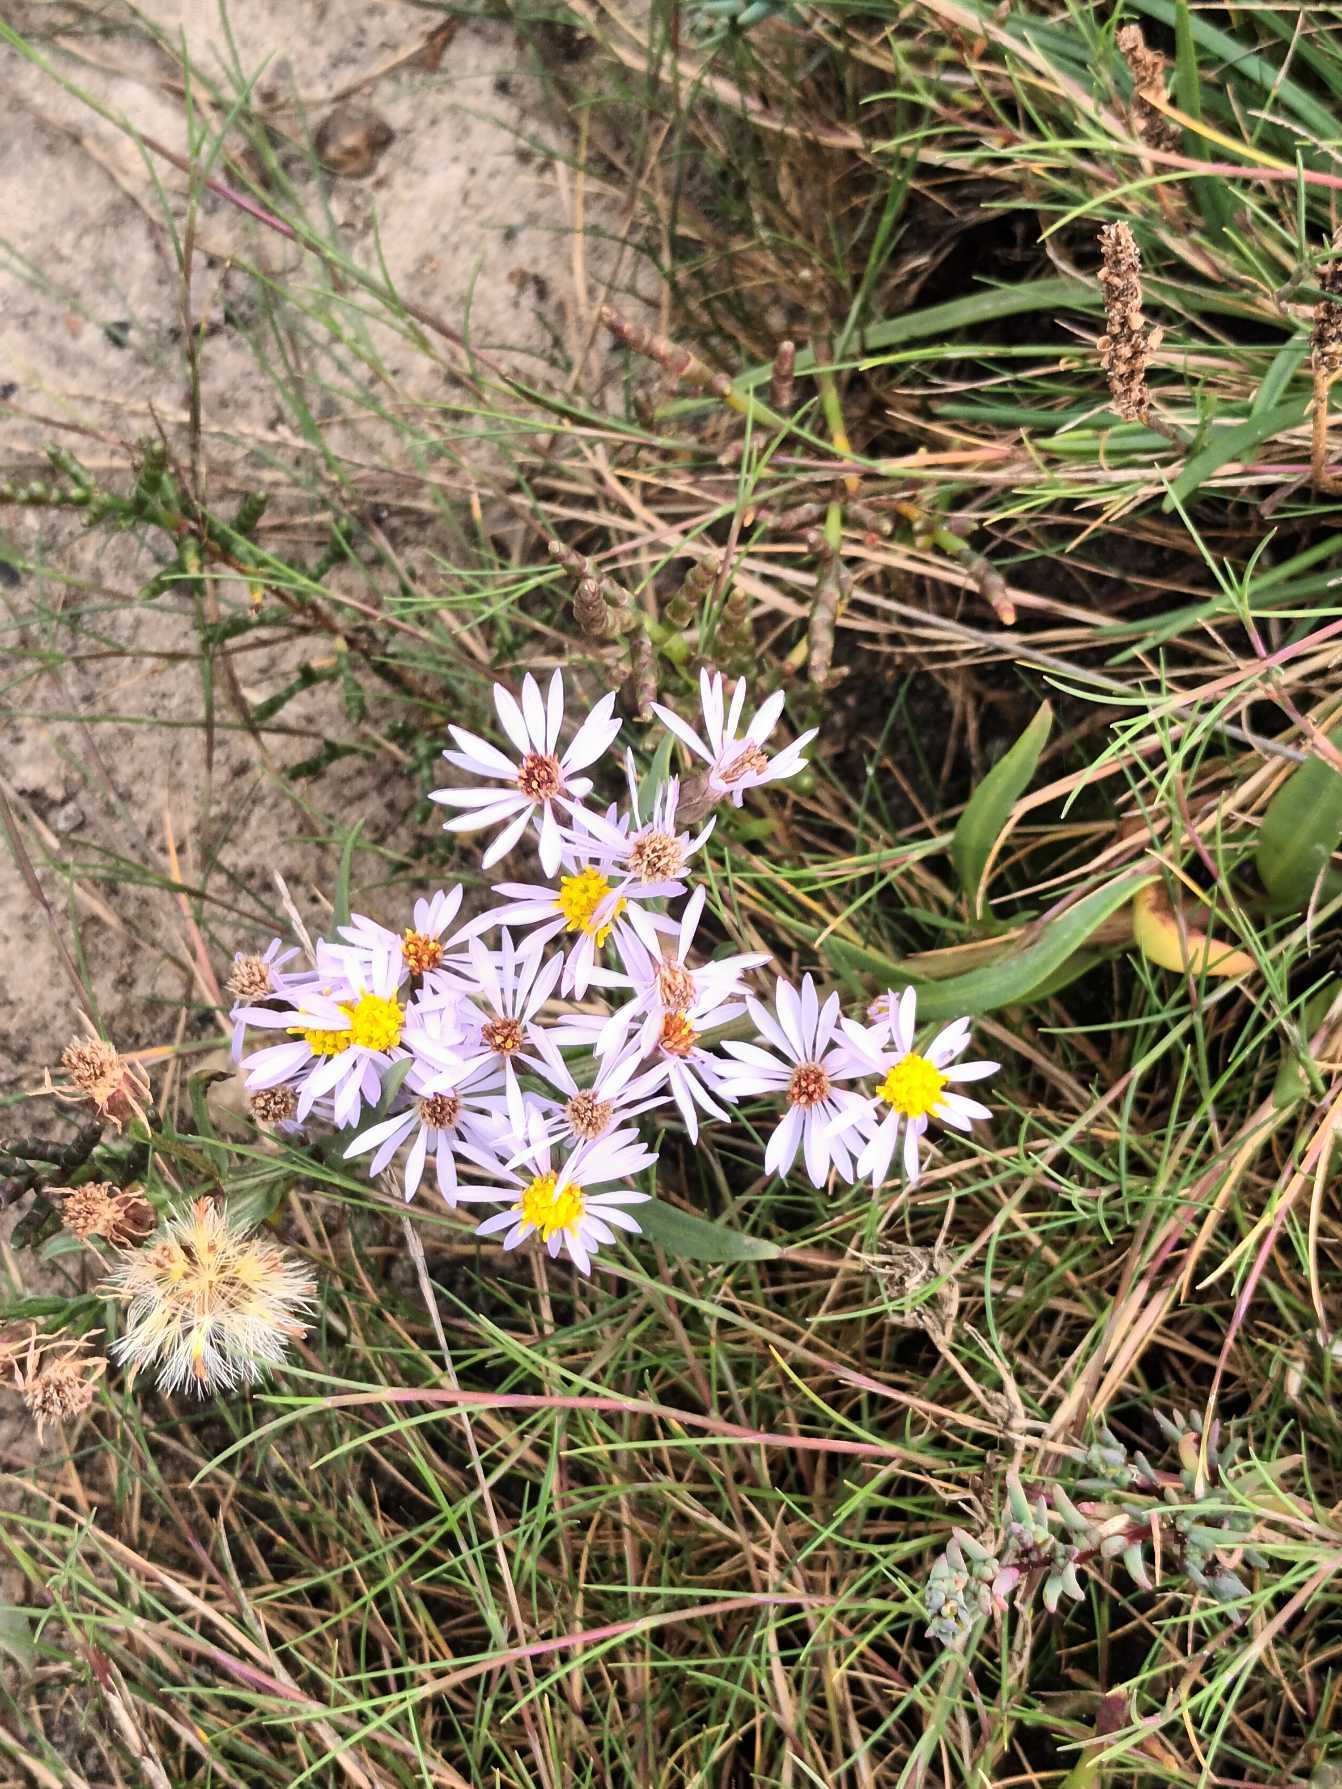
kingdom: Plantae
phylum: Tracheophyta
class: Magnoliopsida
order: Asterales
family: Asteraceae
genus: Tripolium
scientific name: Tripolium pannonicum
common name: Strandasters
